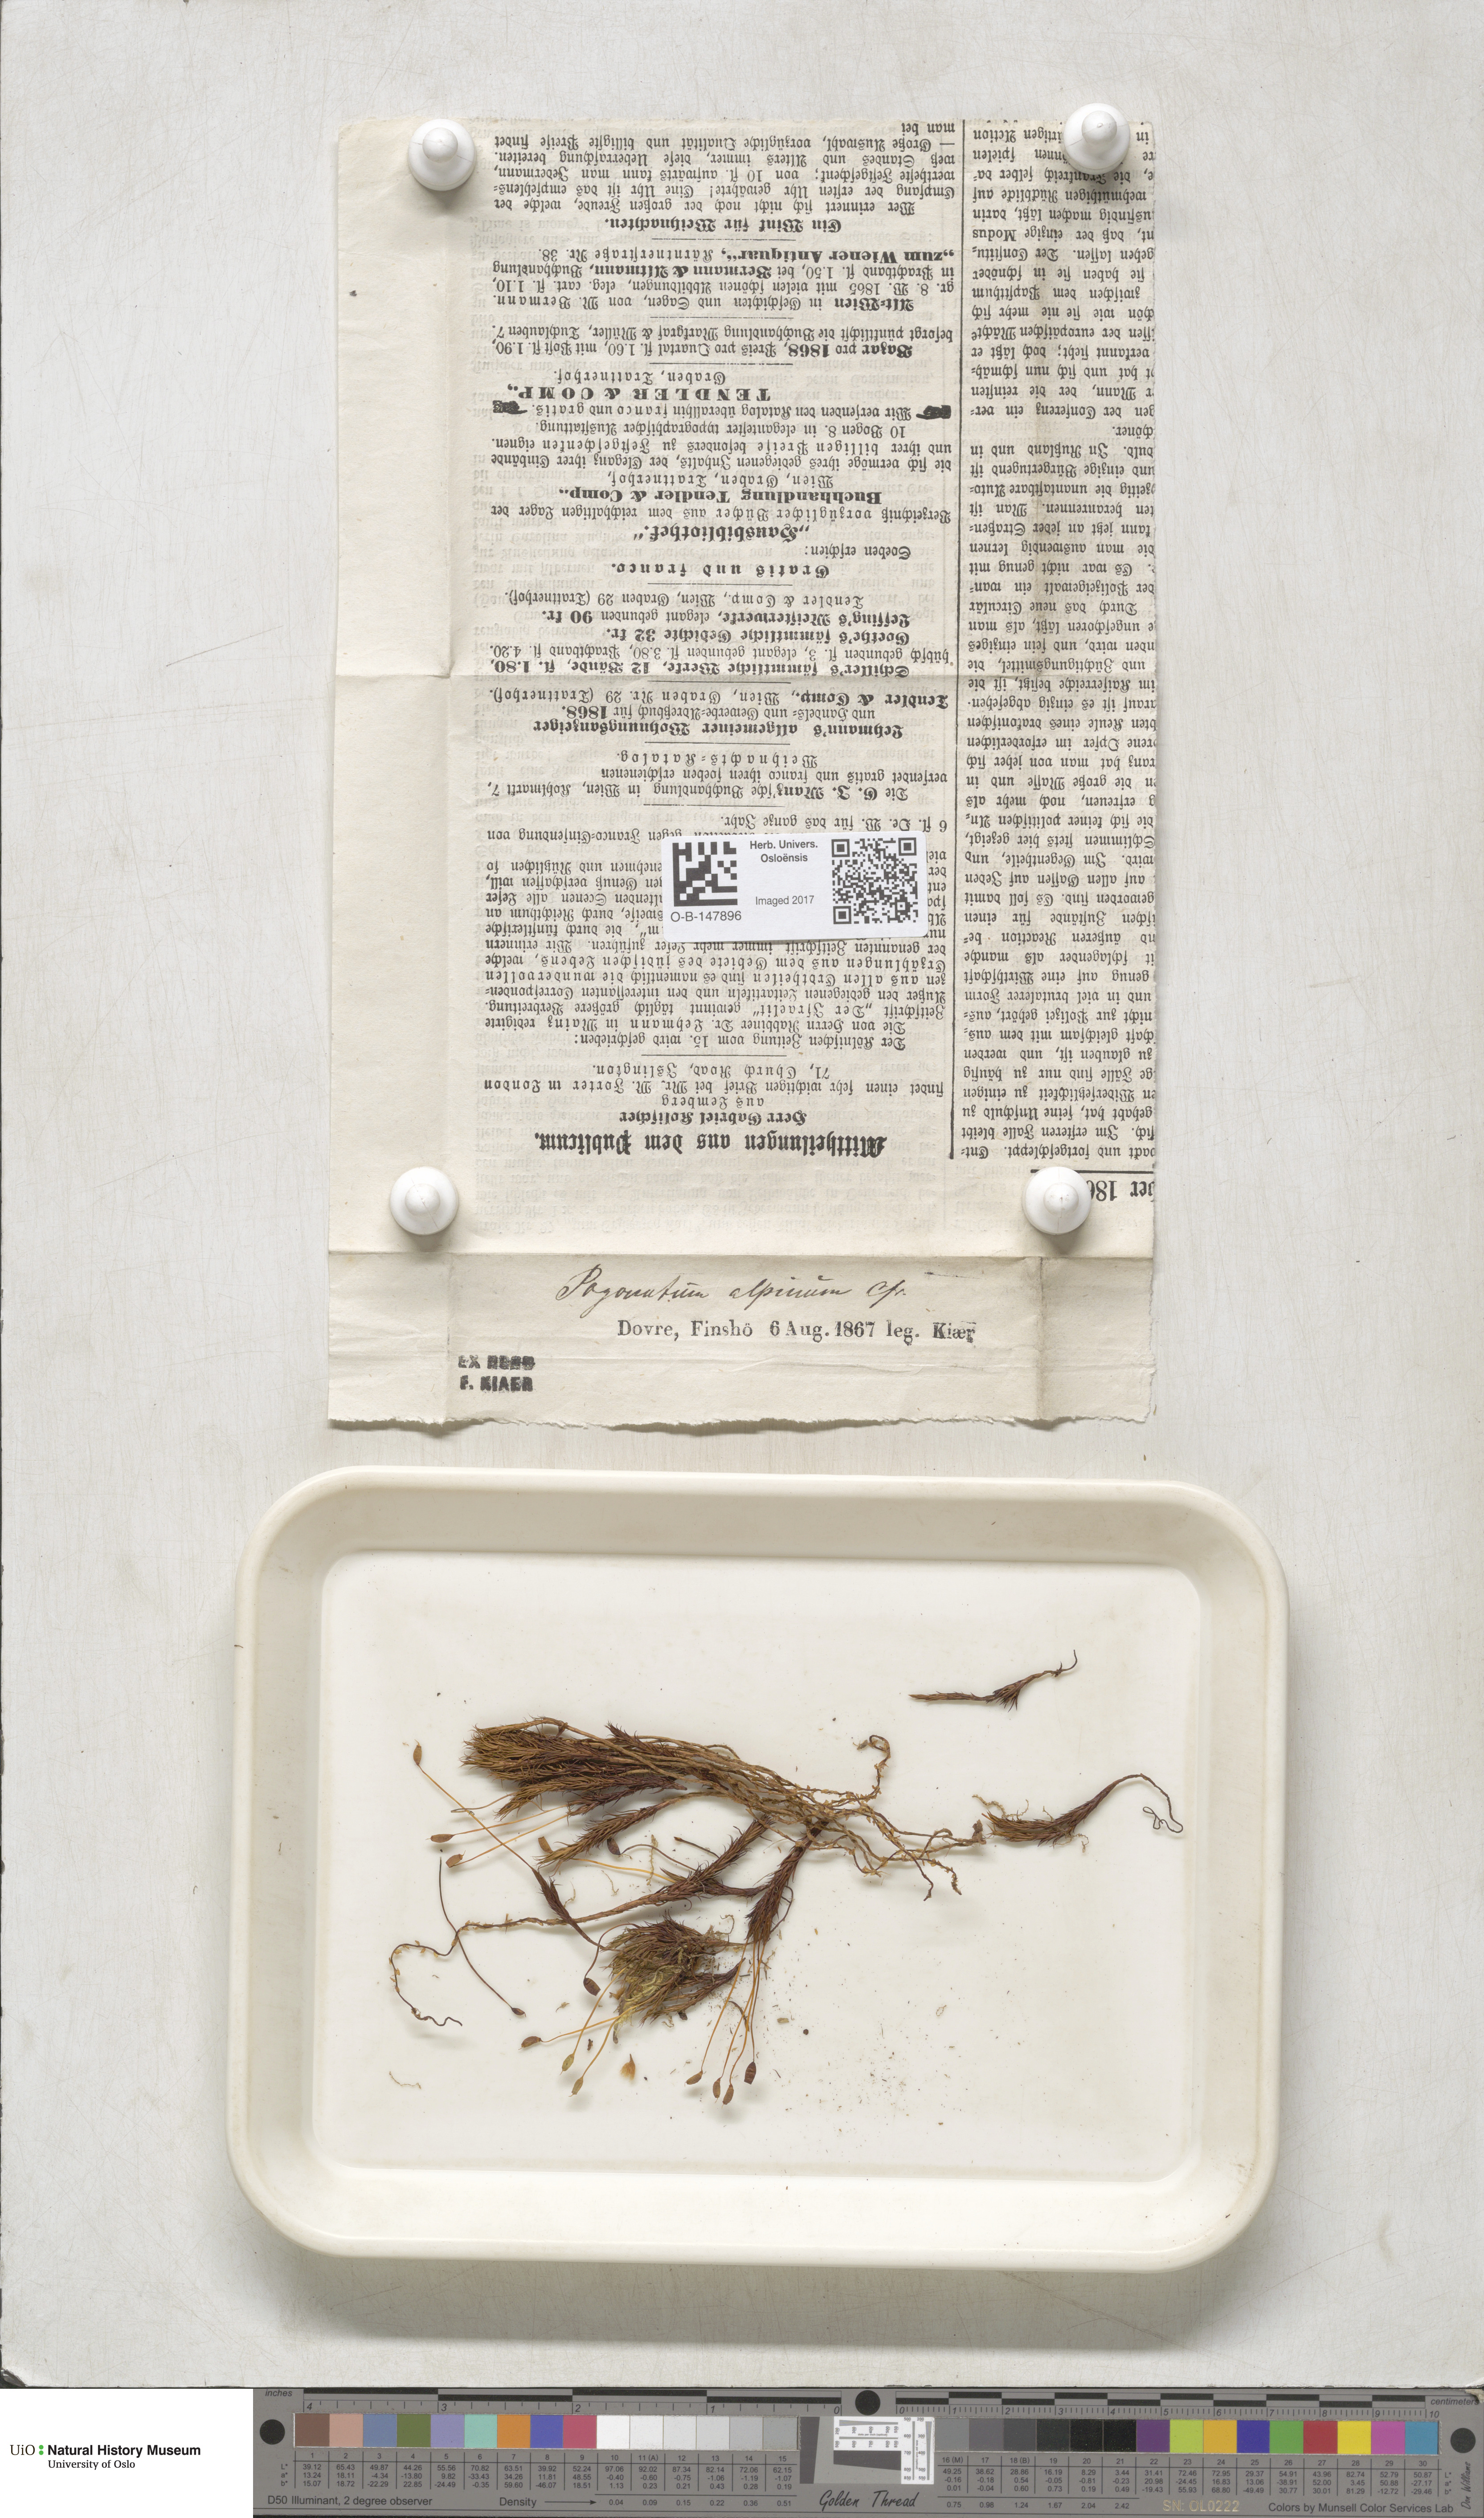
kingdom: Plantae
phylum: Bryophyta
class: Polytrichopsida
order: Polytrichales
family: Polytrichaceae
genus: Polytrichastrum
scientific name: Polytrichastrum alpinum
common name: Alpine haircap
